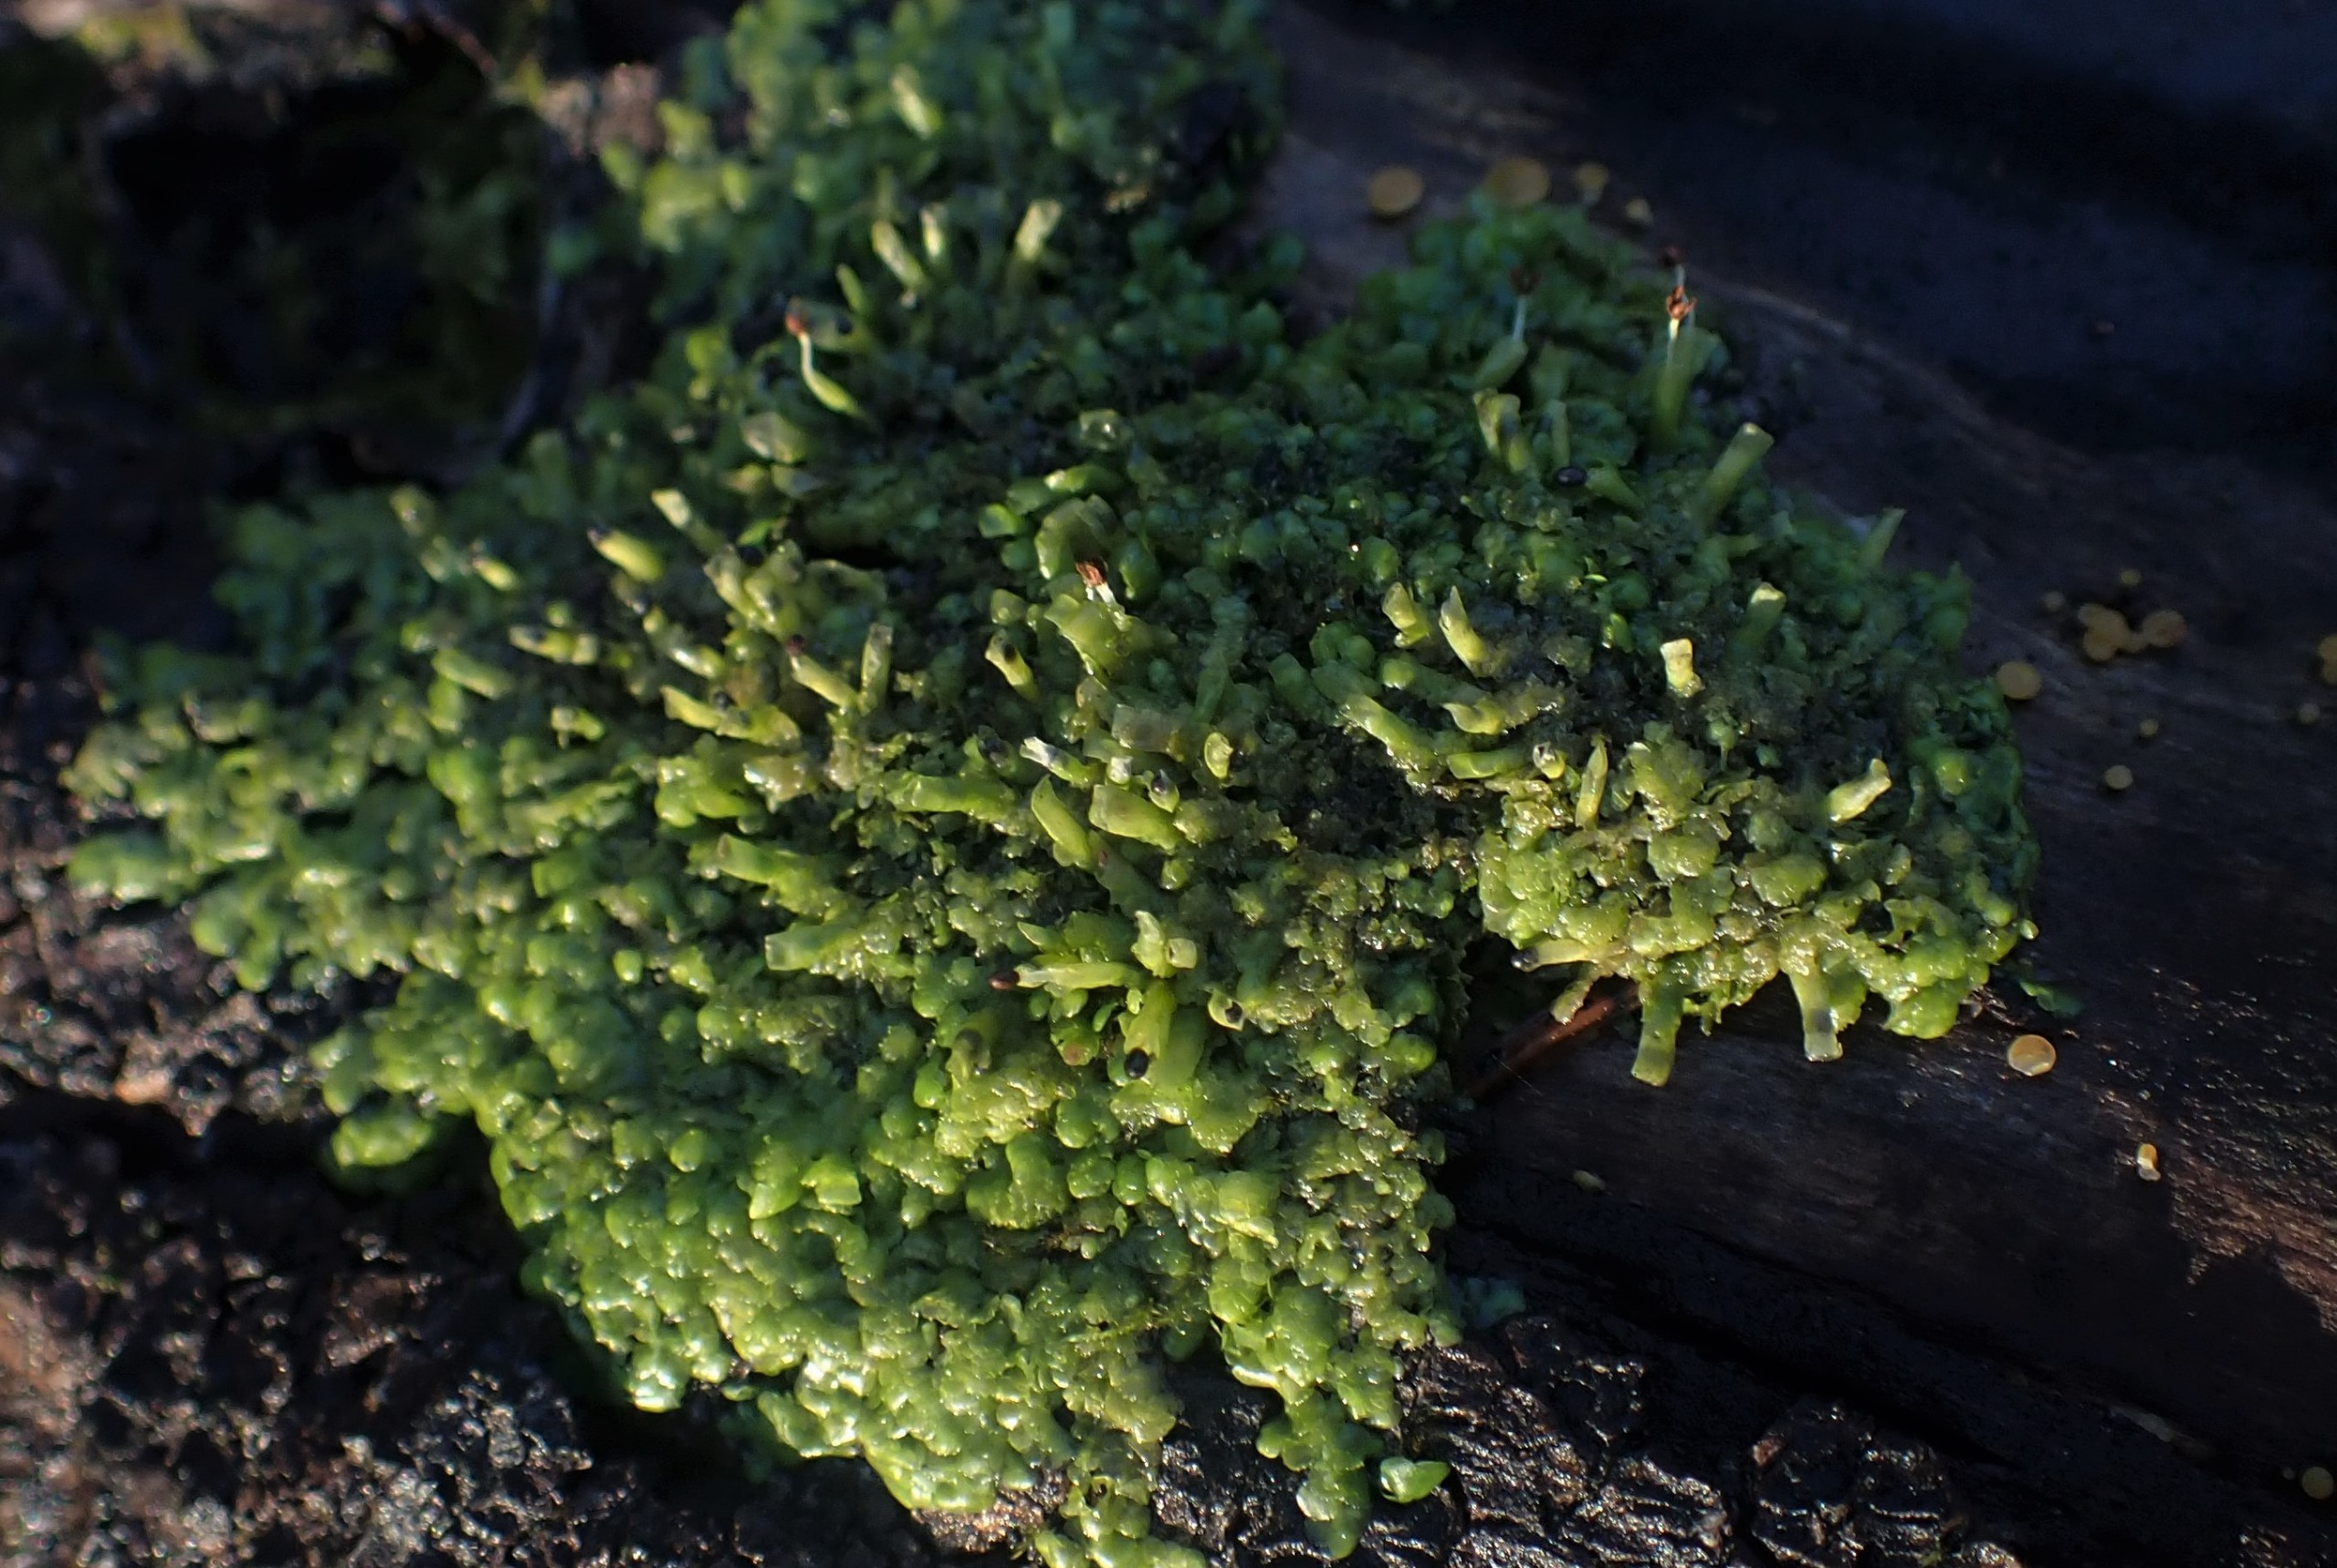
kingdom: Plantae
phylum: Marchantiophyta
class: Jungermanniopsida
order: Porellales
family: Radulaceae
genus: Radula
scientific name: Radula complanata
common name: Almindelig spartelmos
